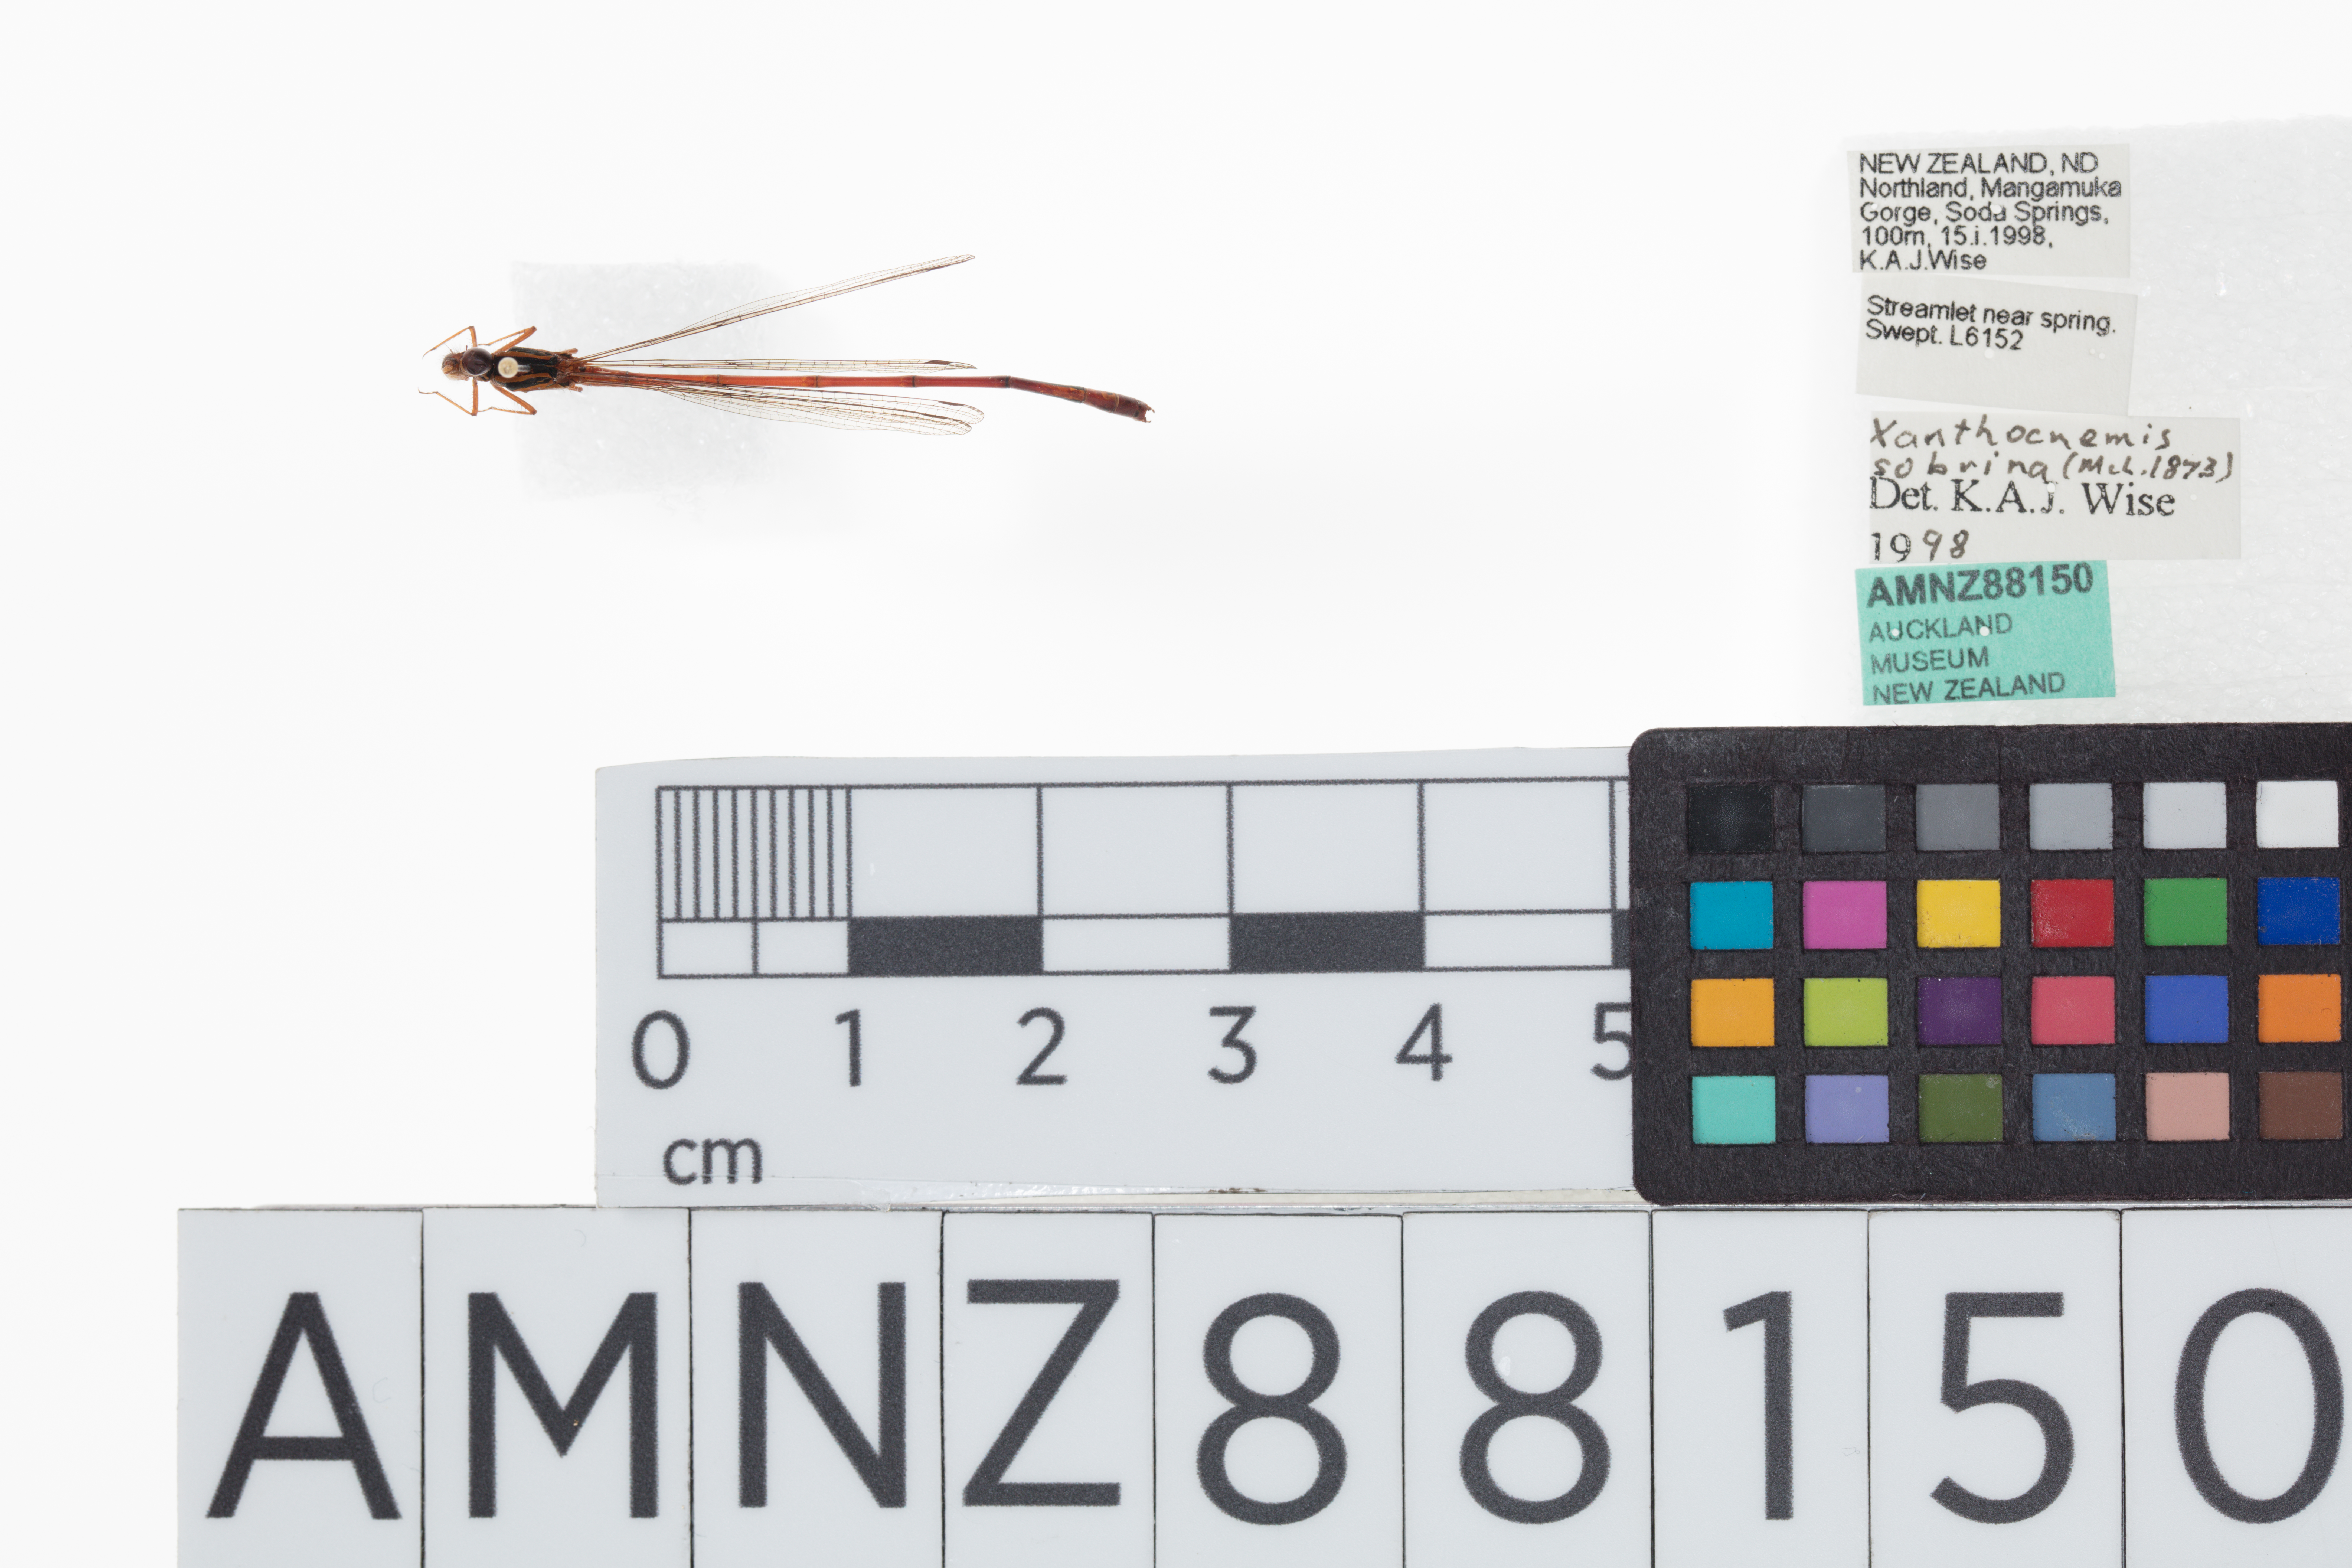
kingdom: Animalia
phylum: Arthropoda
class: Insecta
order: Odonata
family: Coenagrionidae
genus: Xanthocnemis
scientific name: Xanthocnemis zealandica
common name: Common redcoat damselfly
